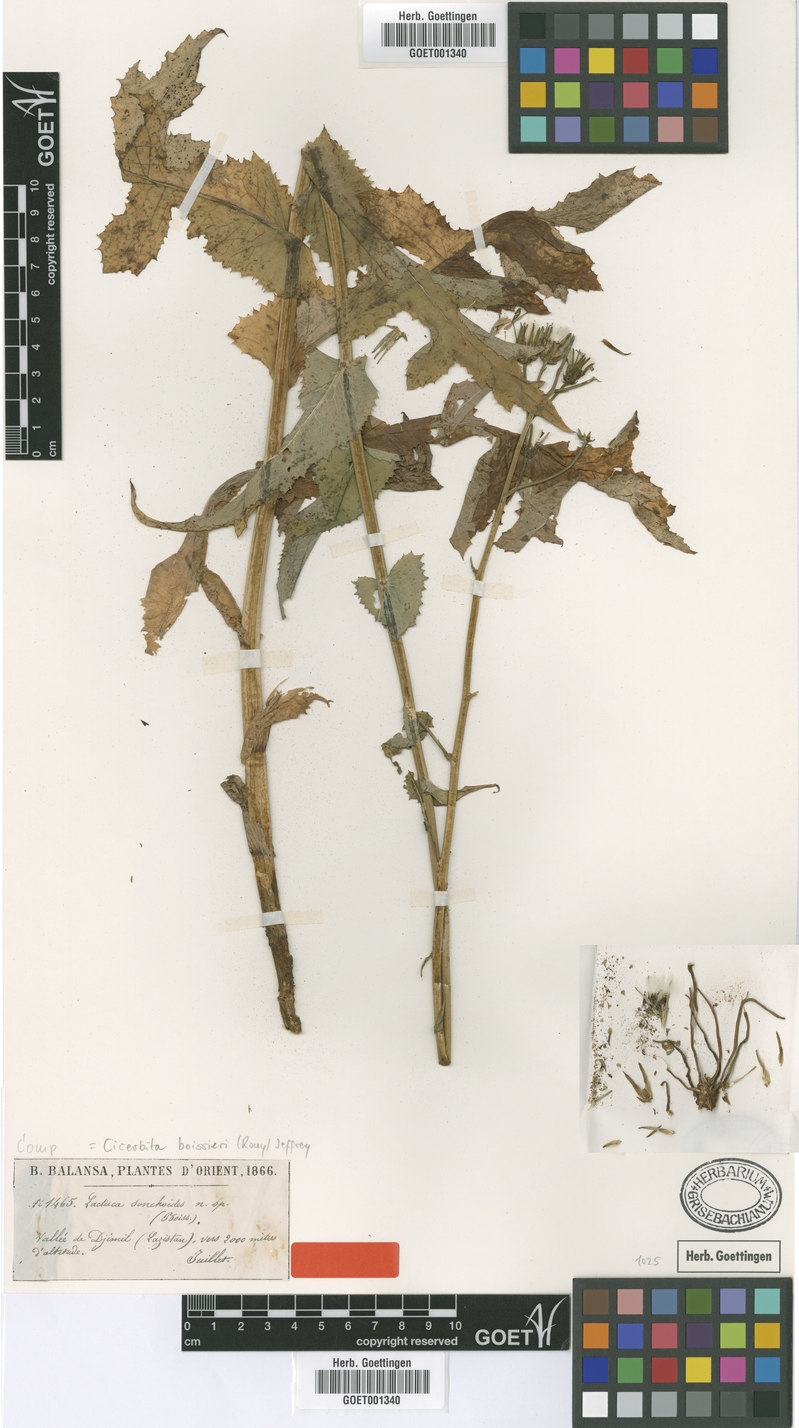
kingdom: Plantae
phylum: Tracheophyta
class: Magnoliopsida
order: Asterales
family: Asteraceae
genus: Lactuca
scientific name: Lactuca boissieri
